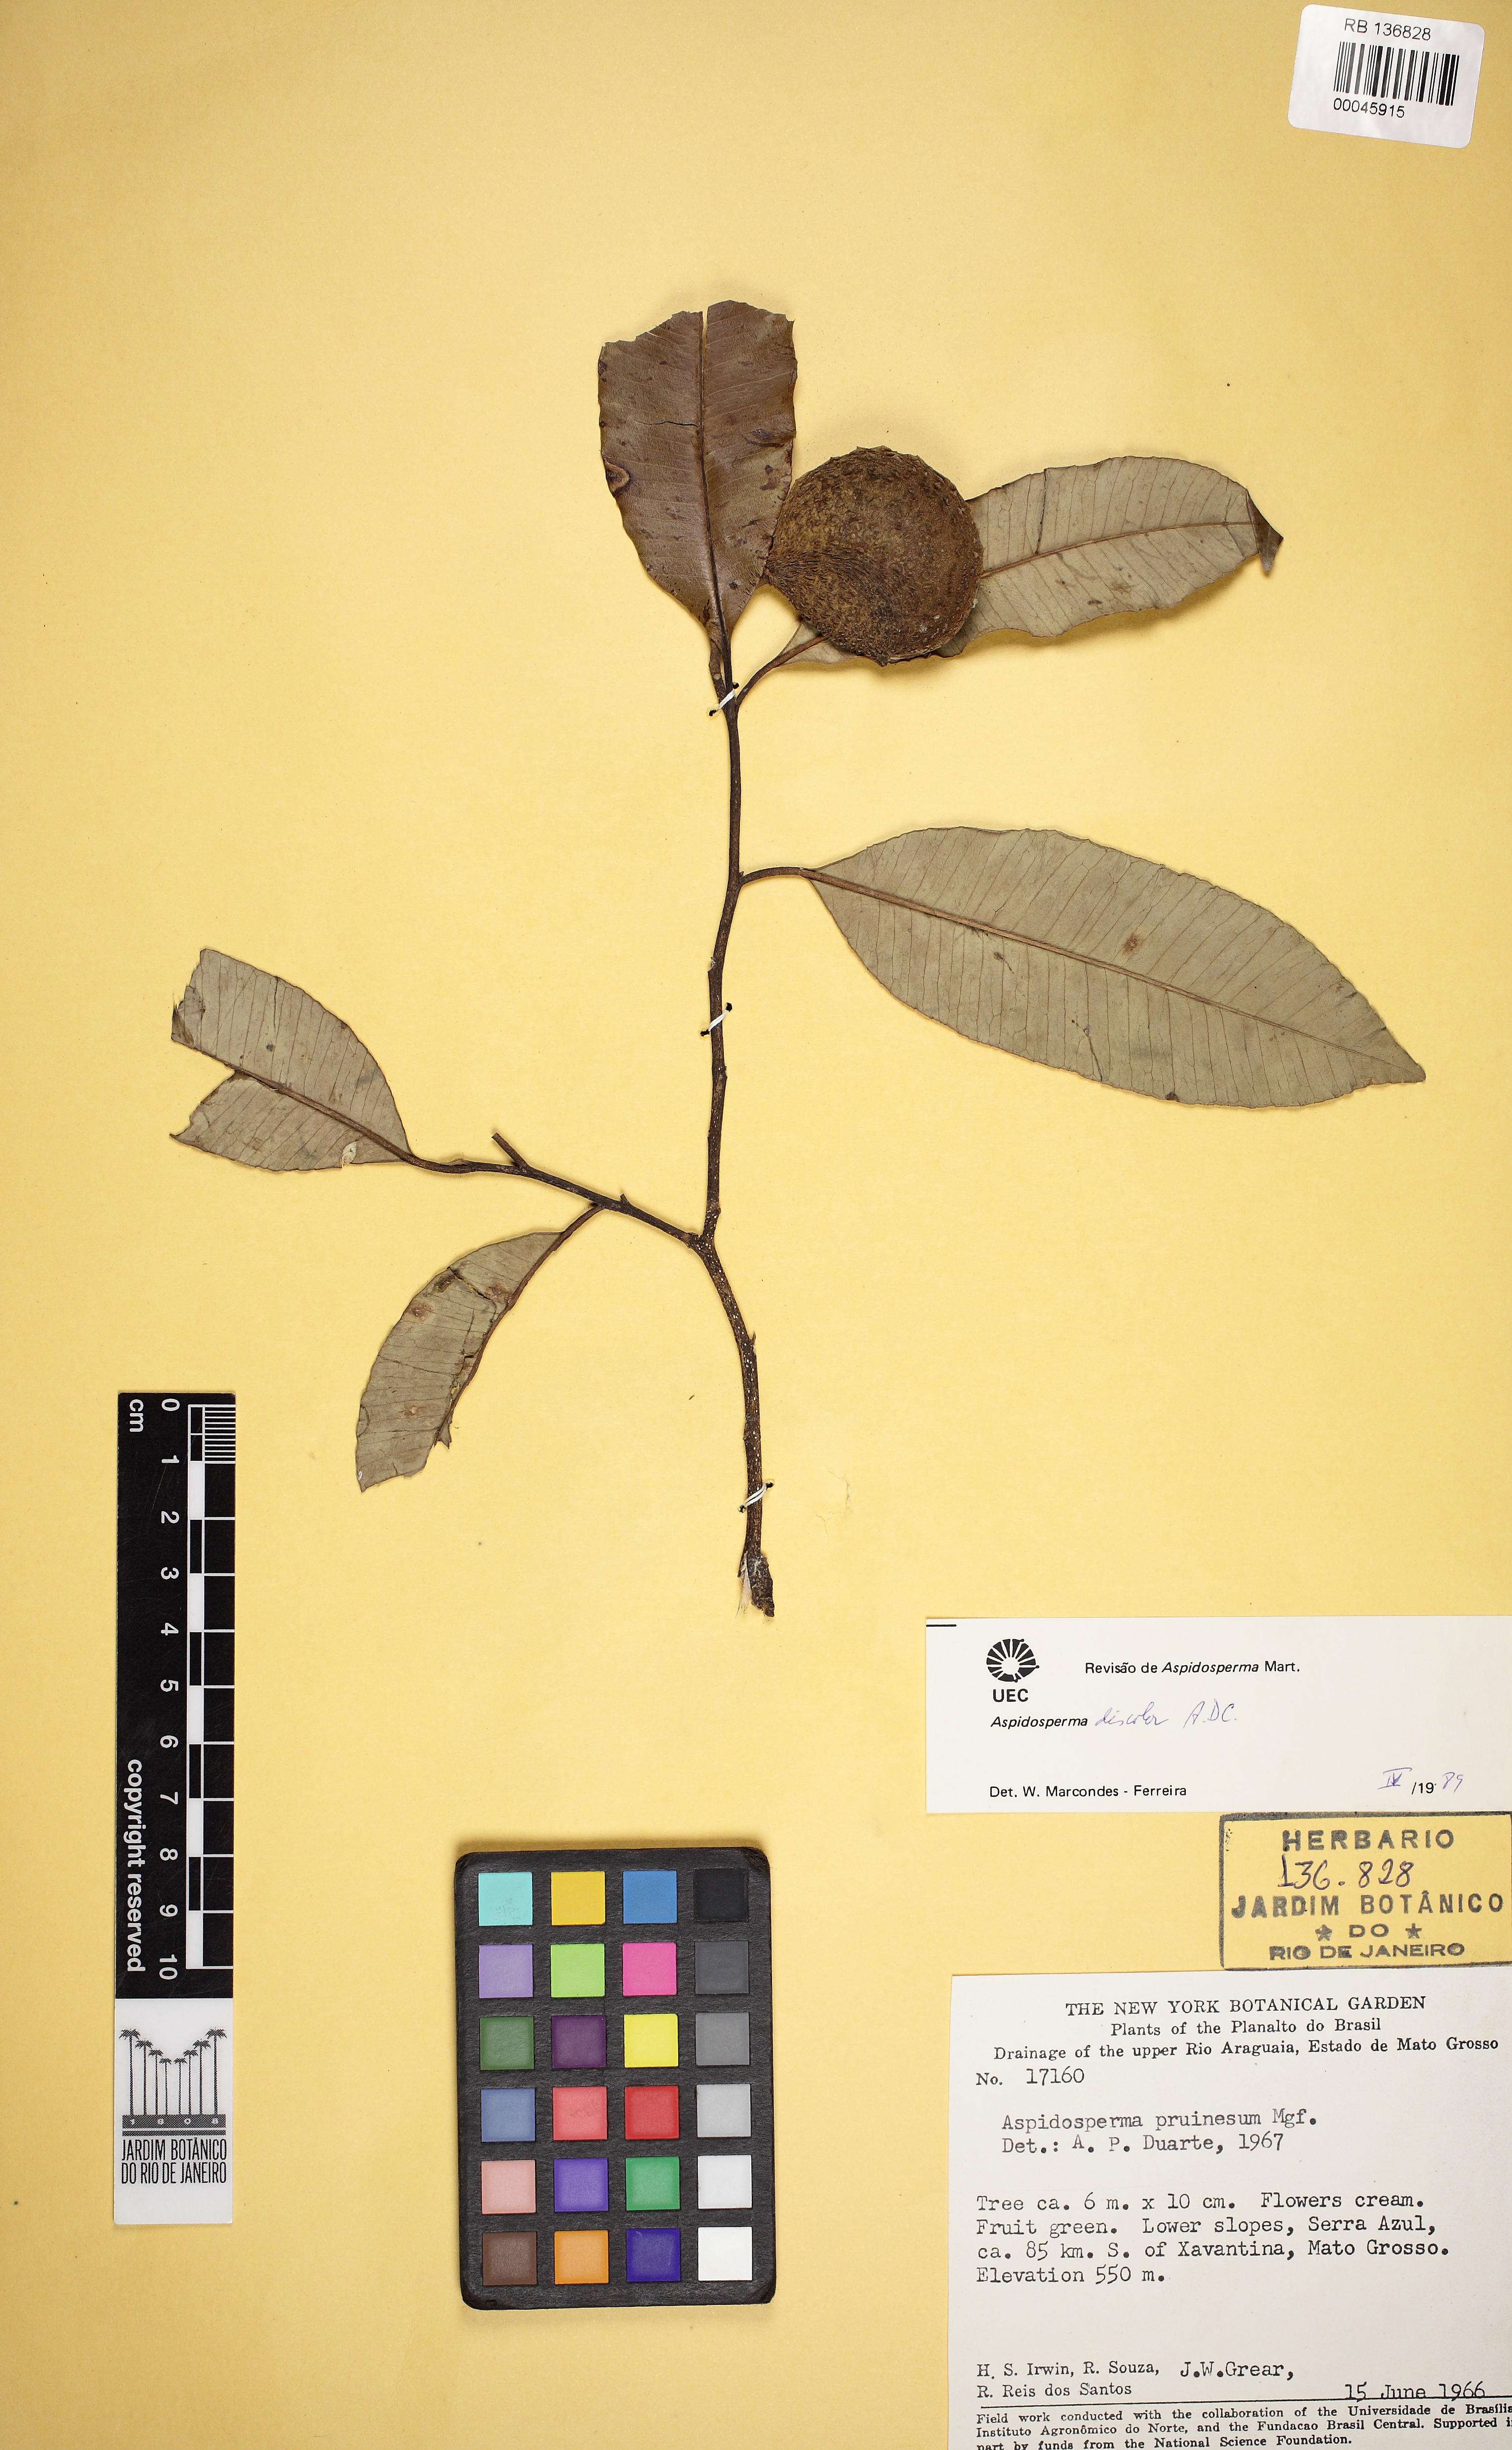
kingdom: Plantae
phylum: Tracheophyta
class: Magnoliopsida
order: Gentianales
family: Apocynaceae
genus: Aspidosperma
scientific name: Aspidosperma discolor
